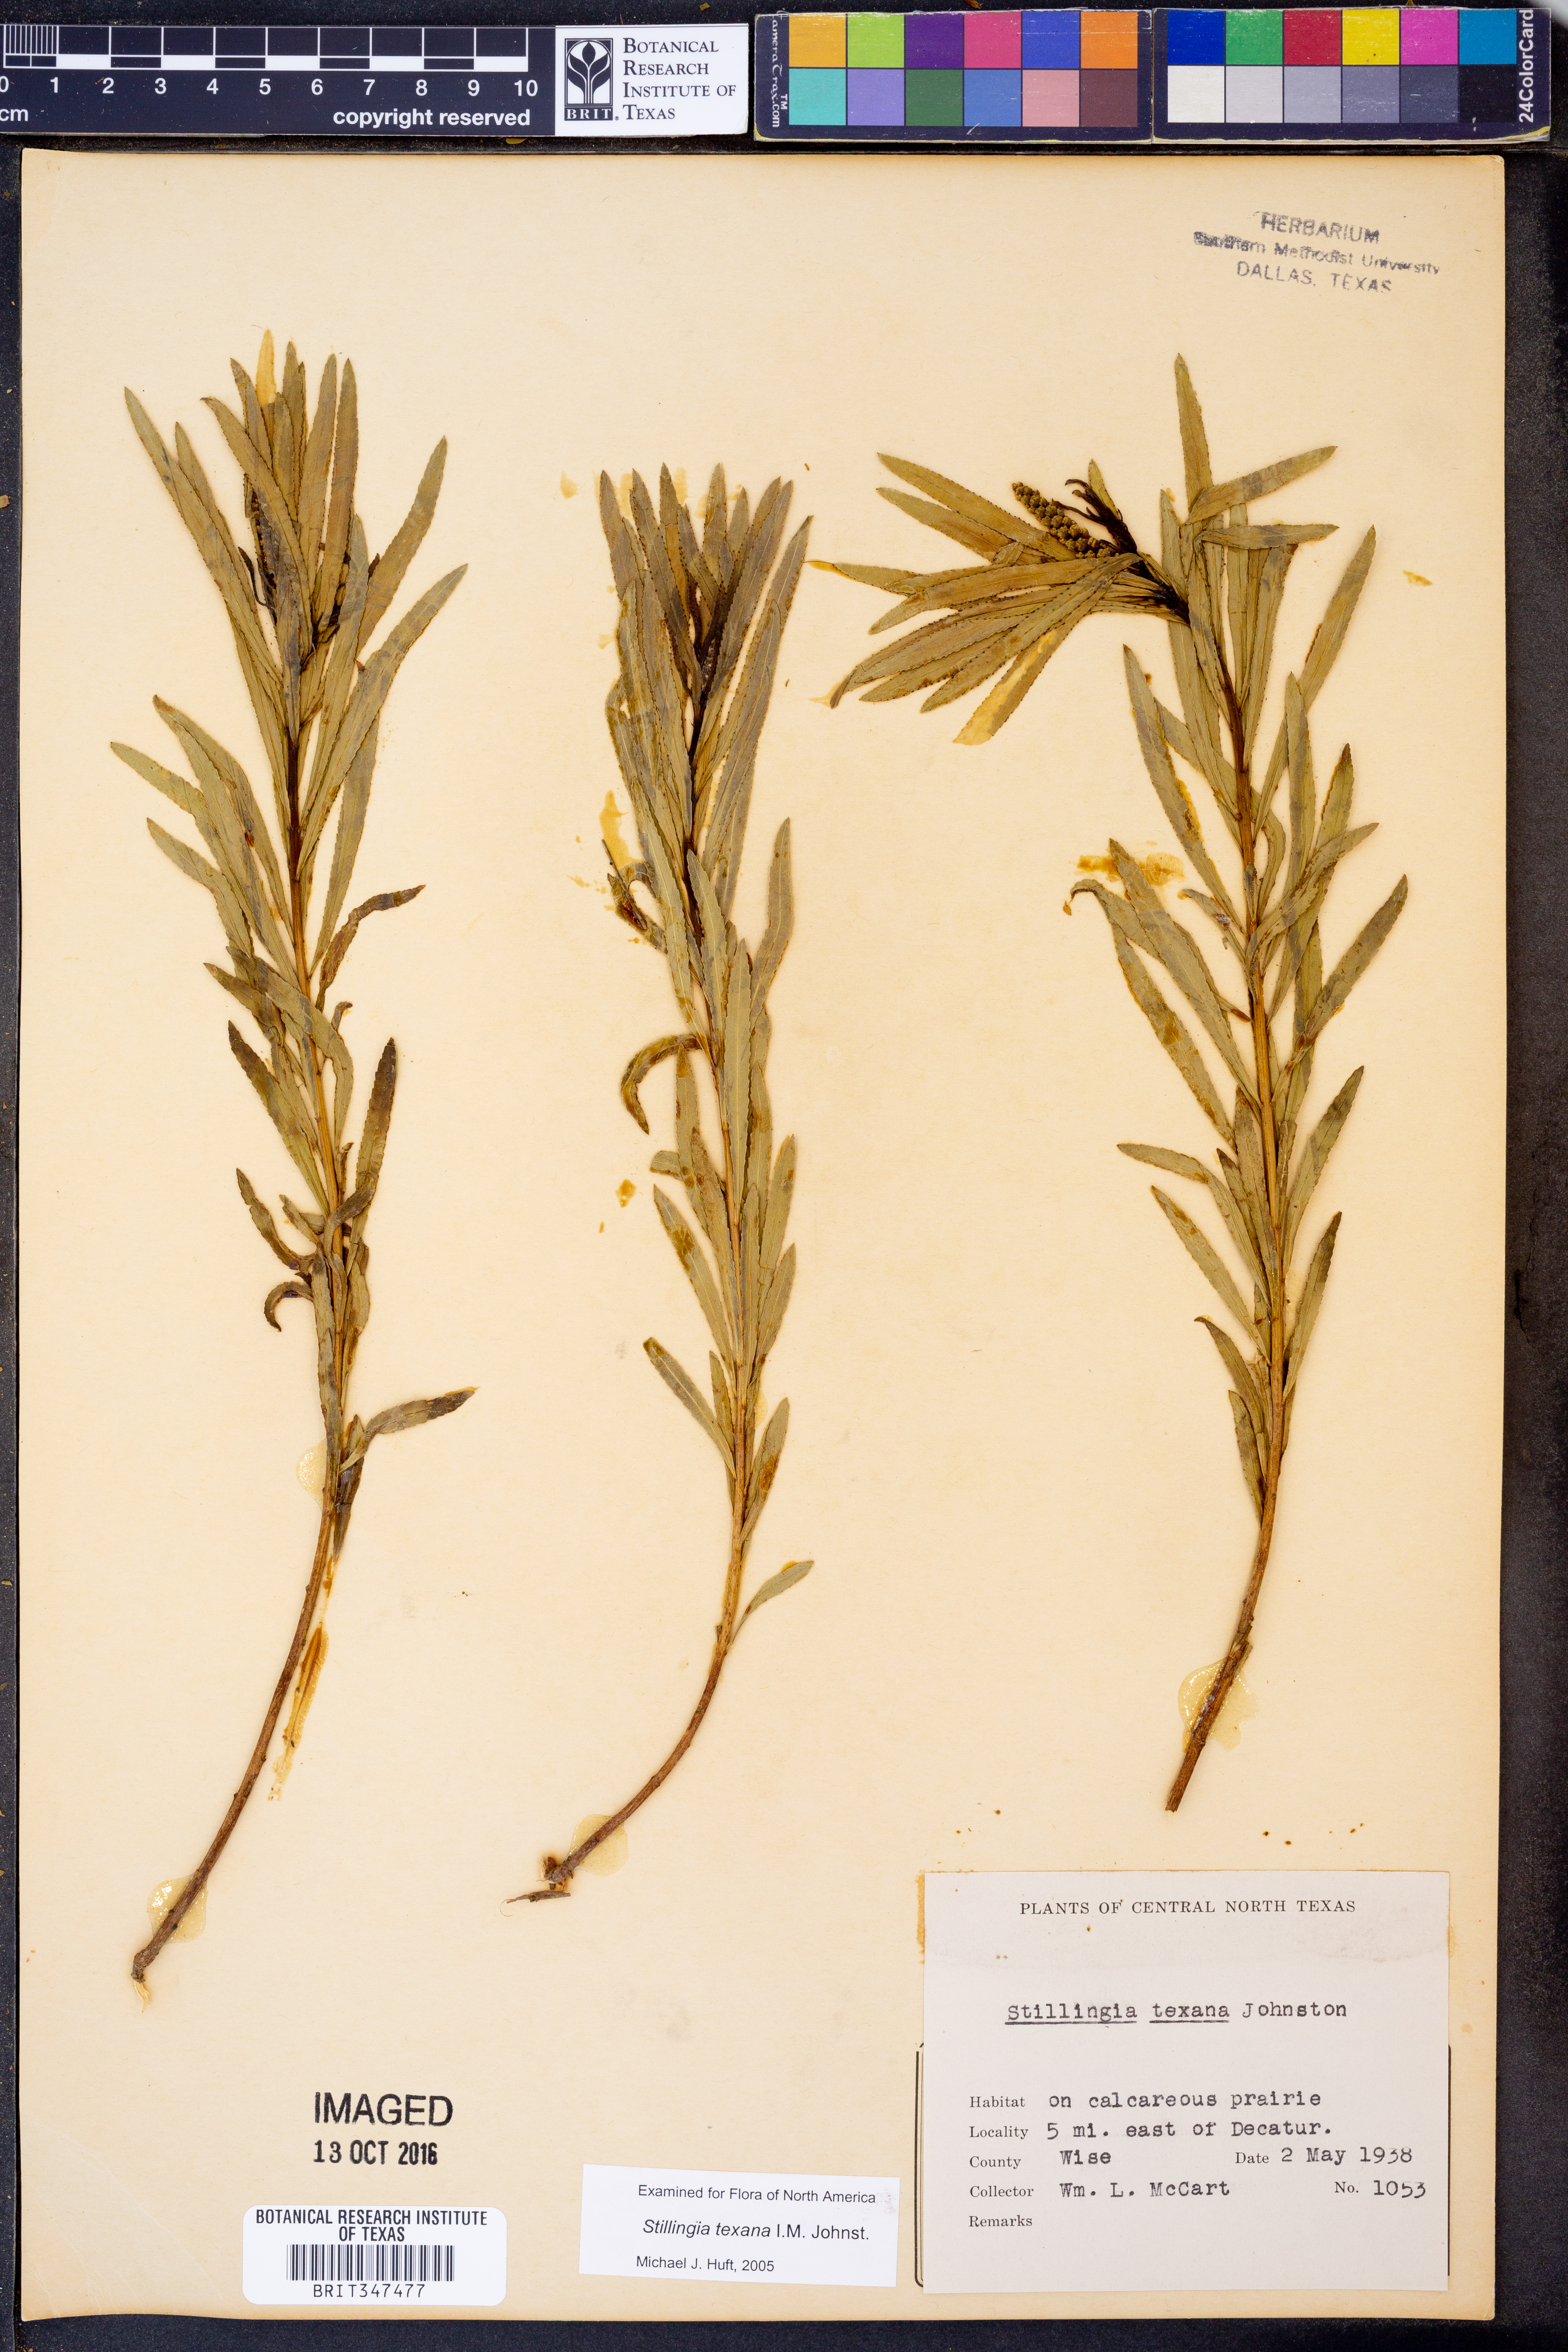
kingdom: Plantae
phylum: Tracheophyta
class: Magnoliopsida
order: Malpighiales
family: Euphorbiaceae
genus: Stillingia
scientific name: Stillingia texana
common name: Texas stillingia
